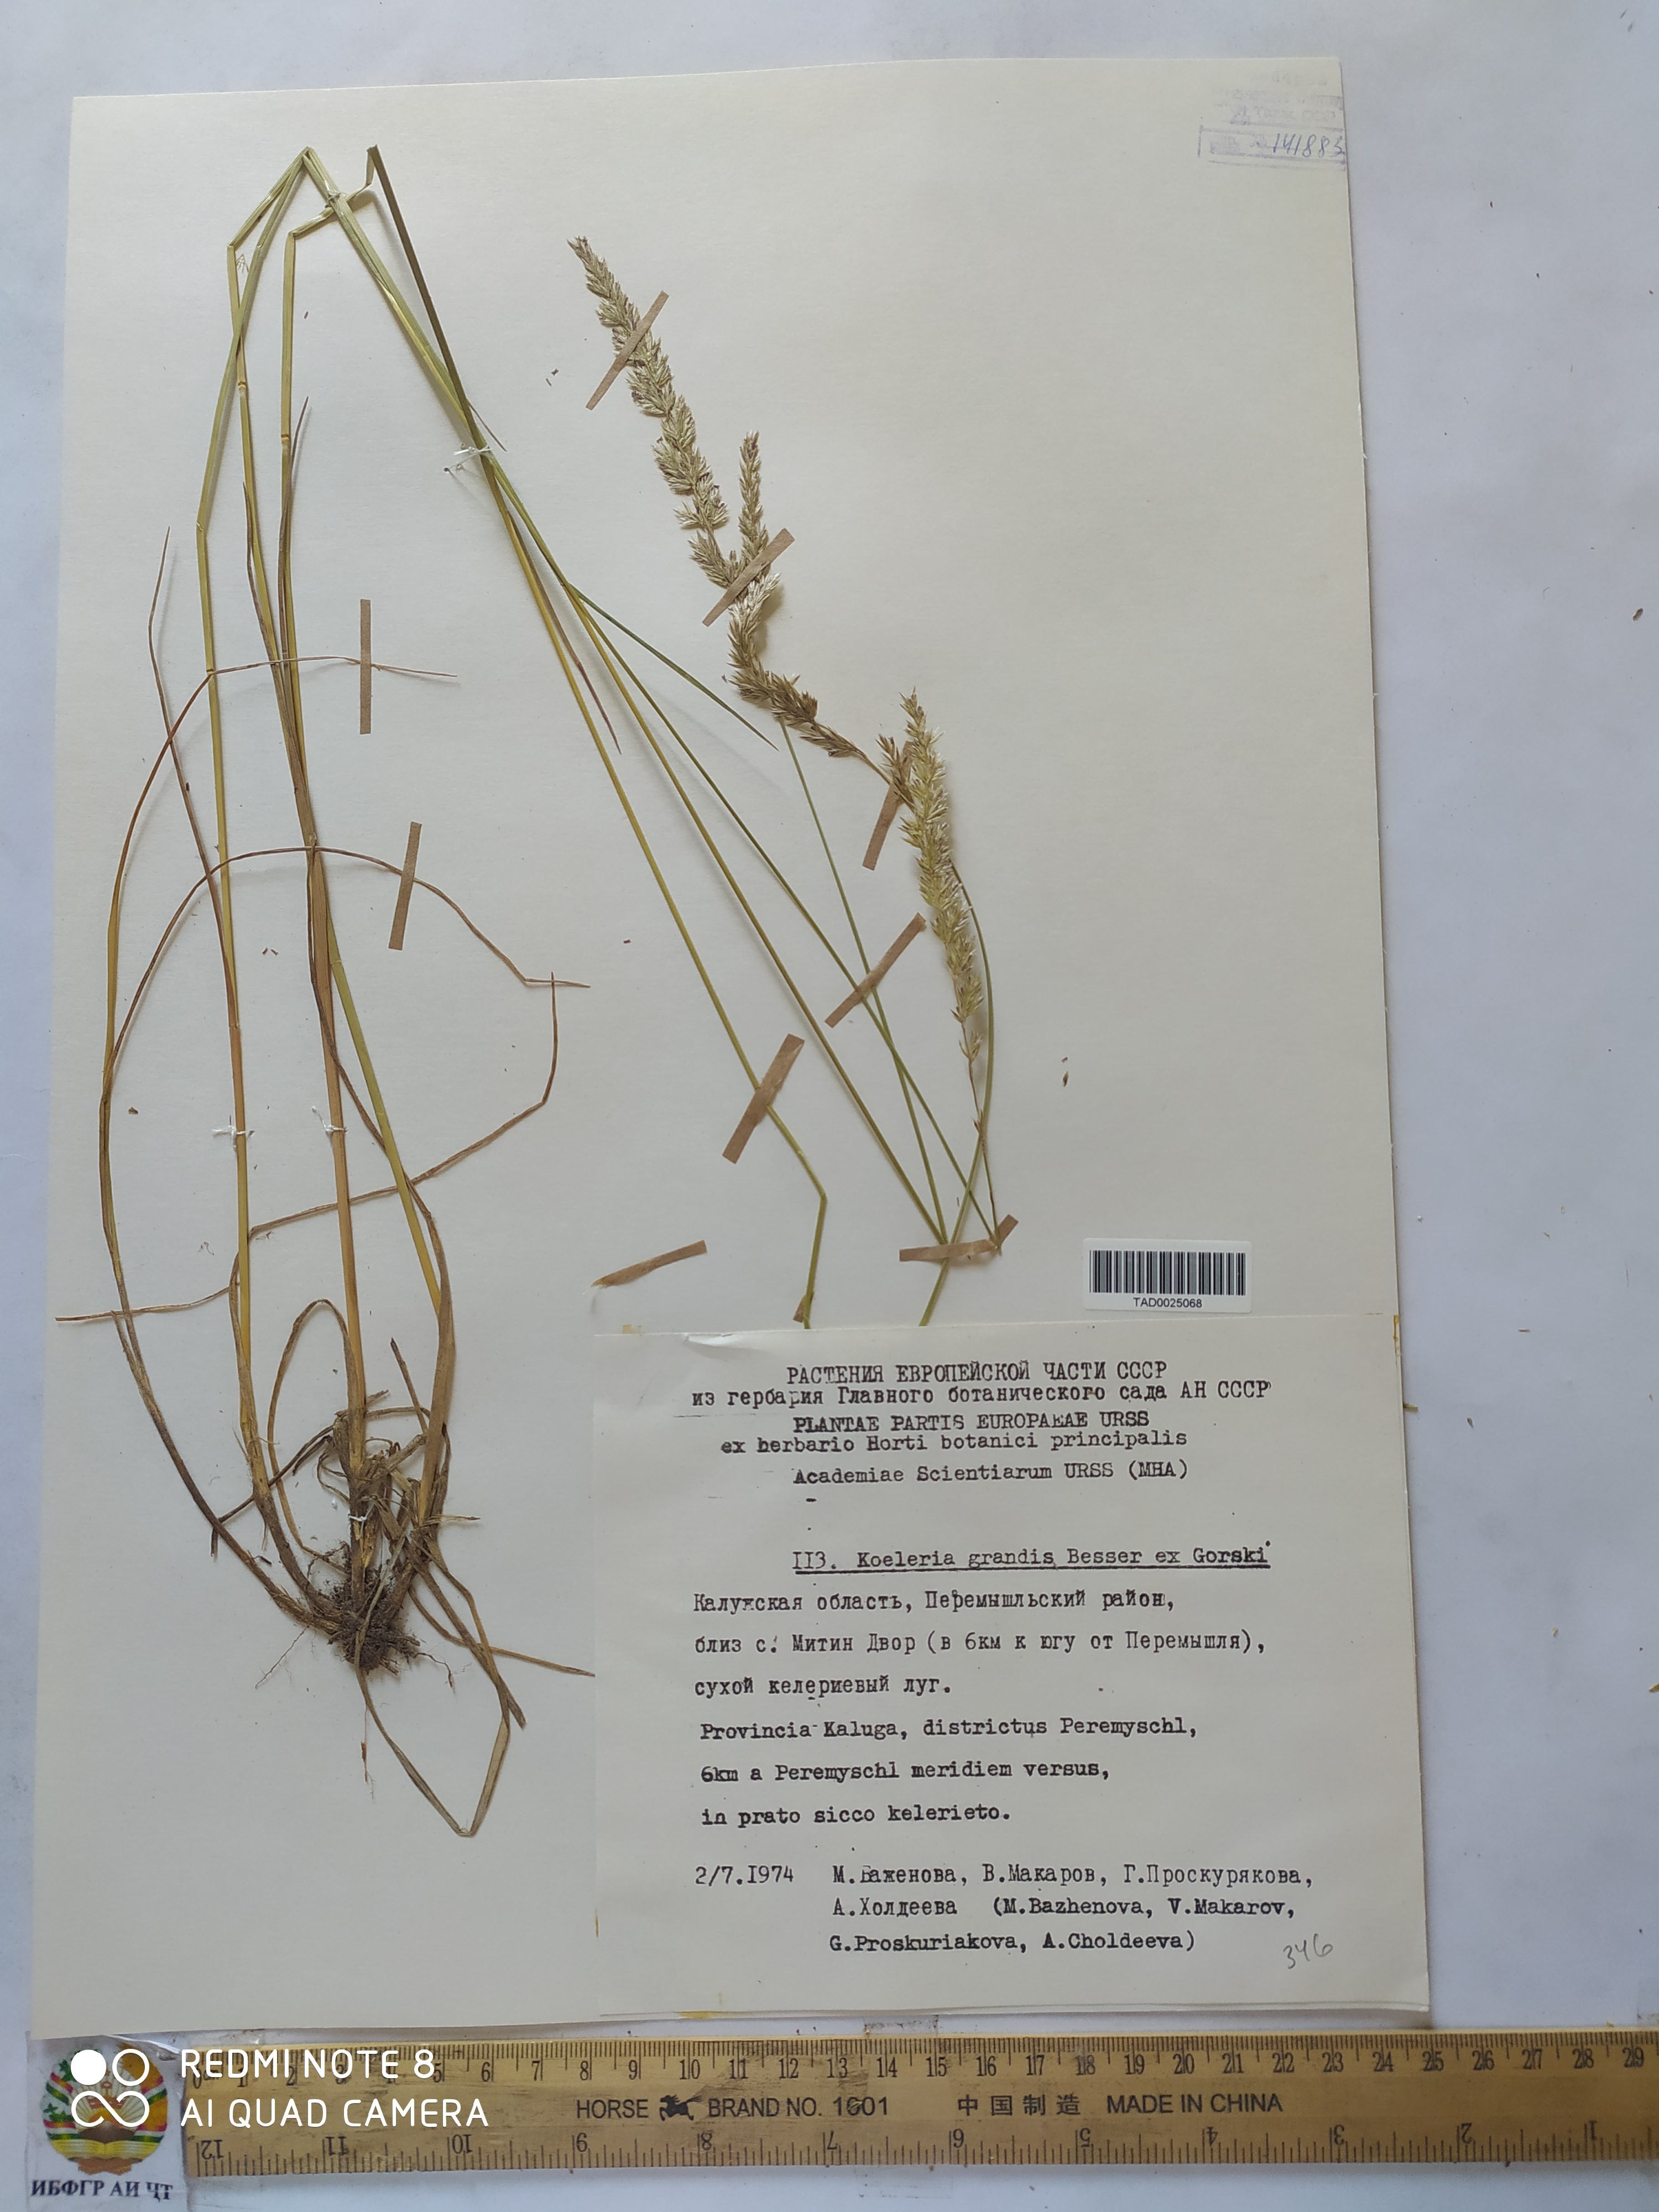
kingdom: Plantae
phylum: Tracheophyta
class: Liliopsida
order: Poales
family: Poaceae
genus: Koeleria
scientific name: Koeleria pyramidata
